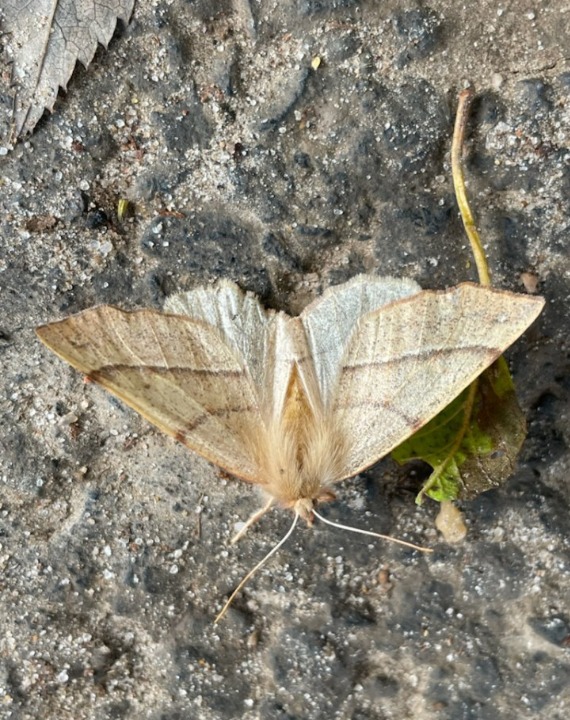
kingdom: Animalia
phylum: Arthropoda
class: Insecta
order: Lepidoptera
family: Geometridae
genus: Colotois
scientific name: Colotois pennaria
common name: Løvfaldsmåler
